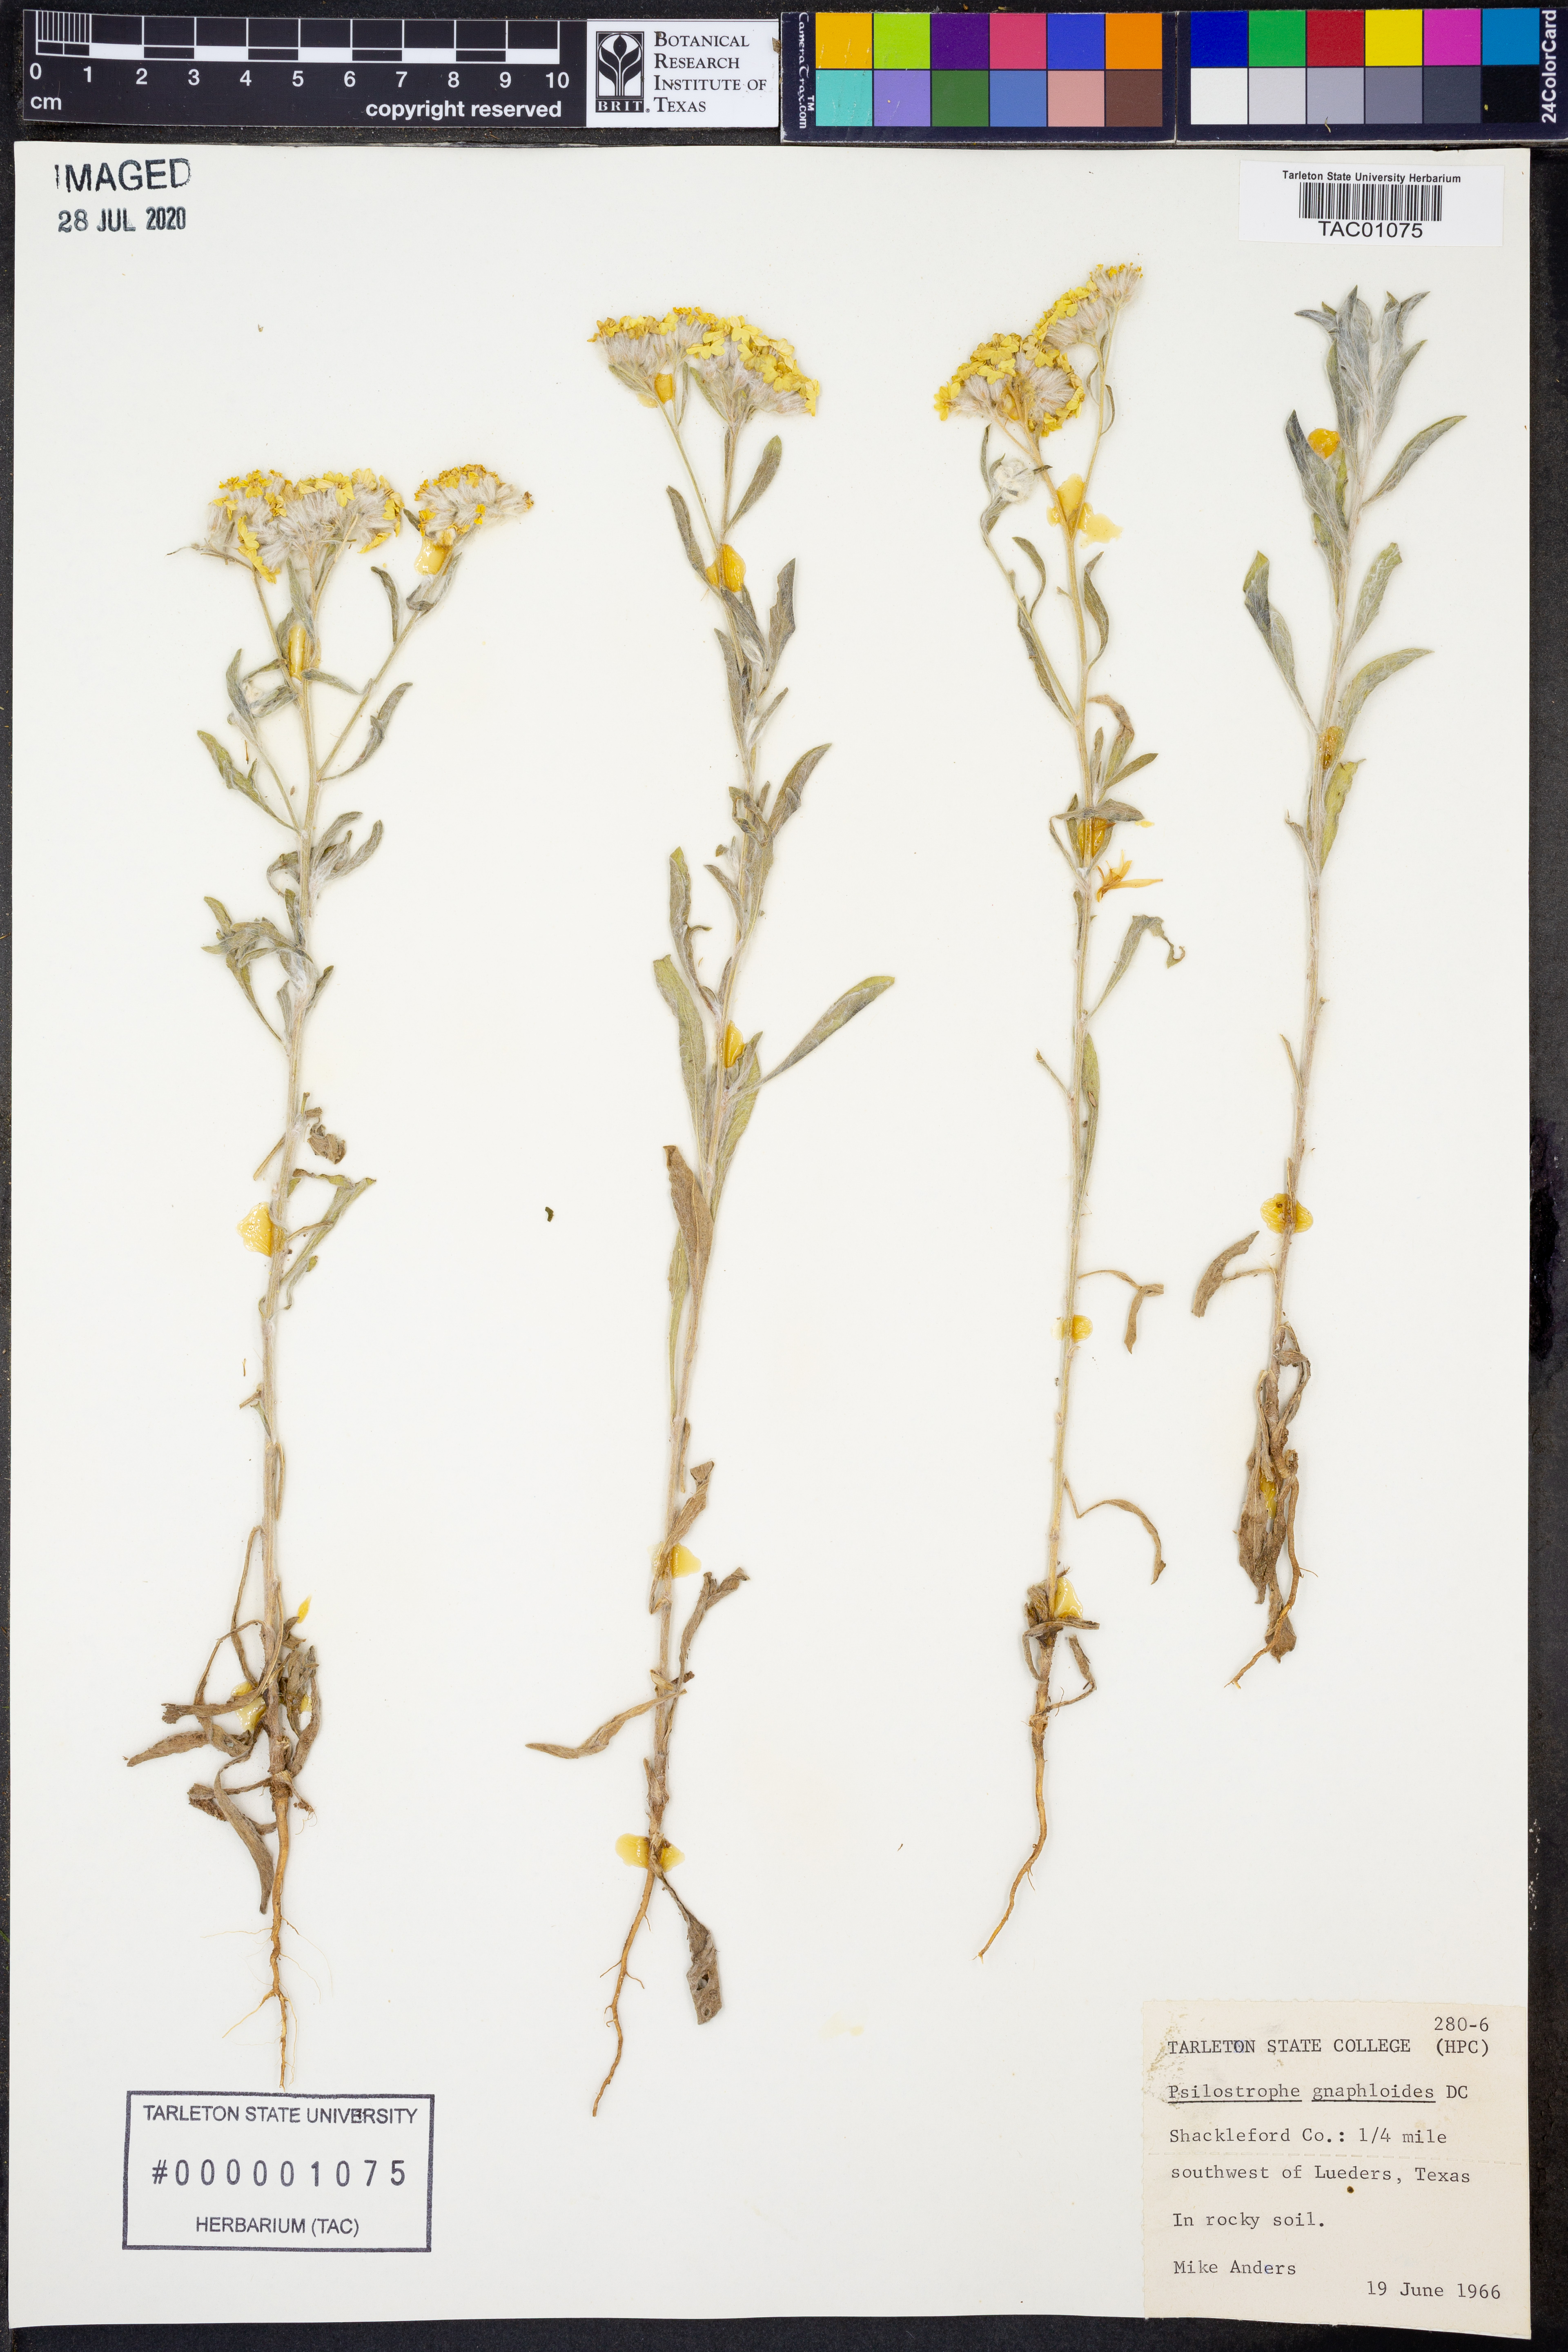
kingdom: Plantae
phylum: Tracheophyta
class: Magnoliopsida
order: Asterales
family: Asteraceae
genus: Psilostrophe
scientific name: Psilostrophe gnaphalioides
